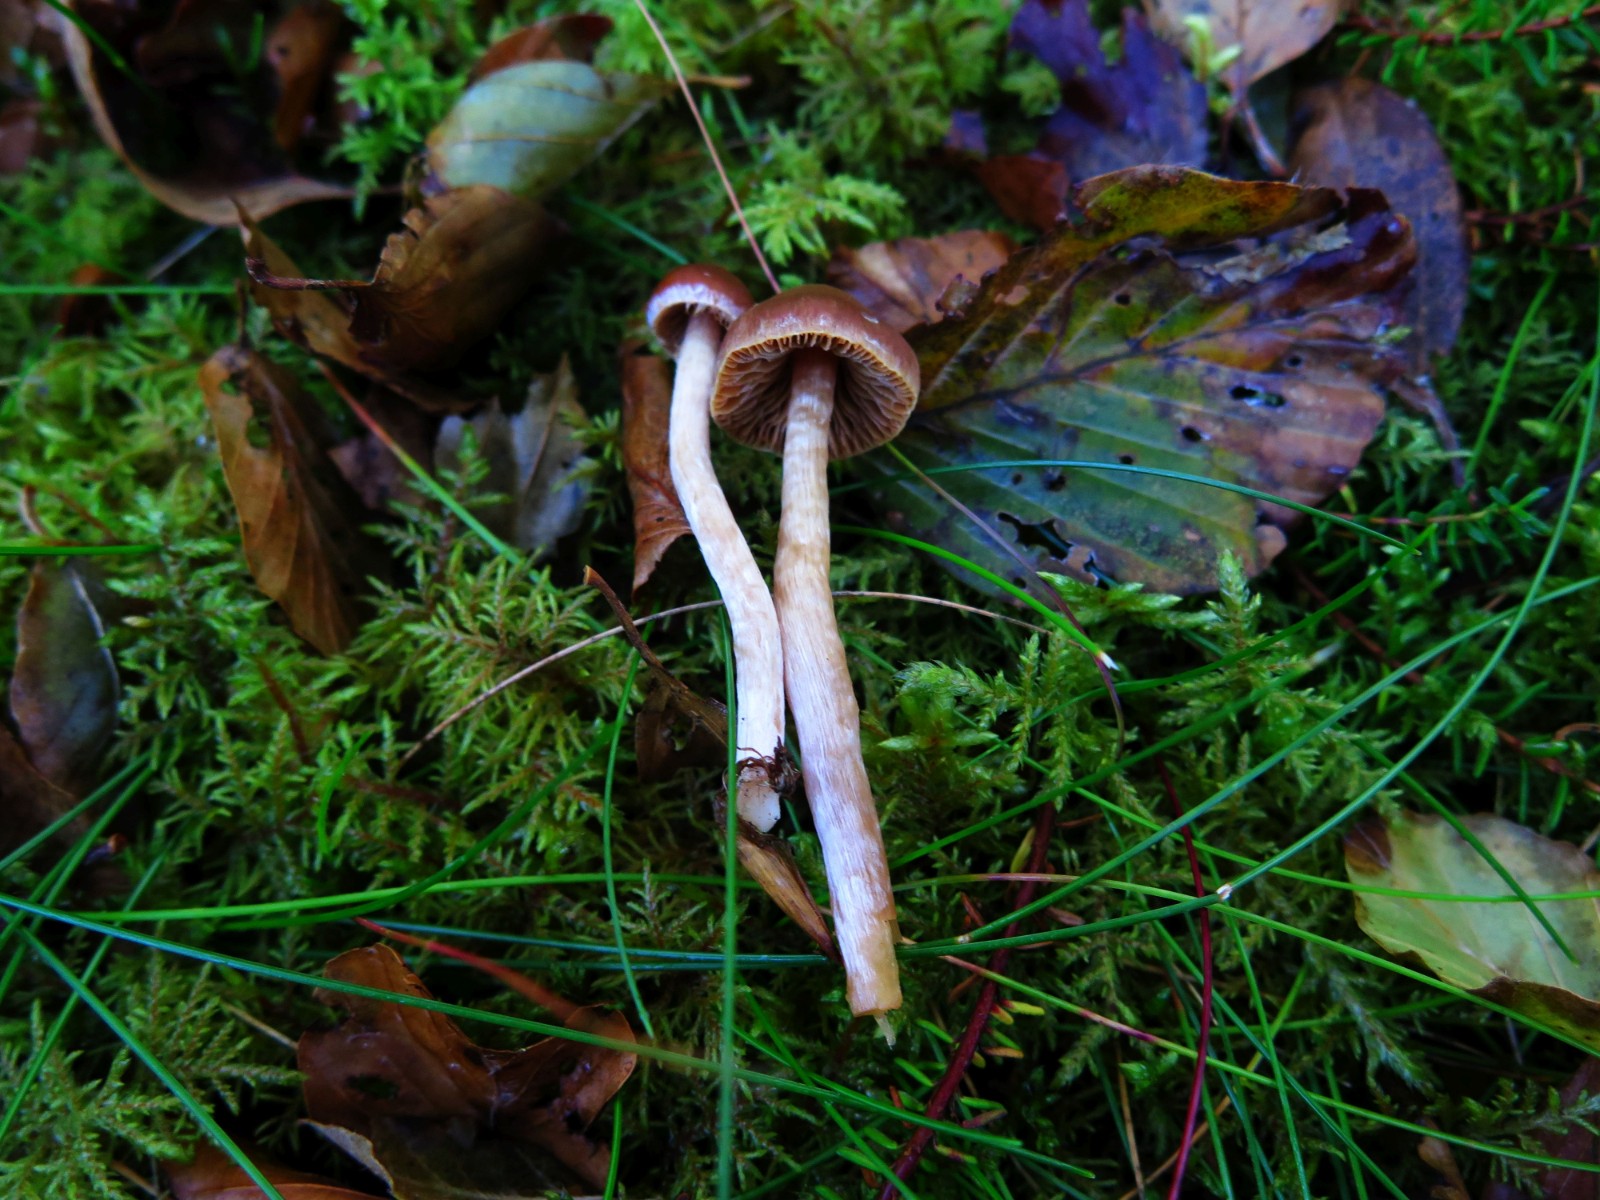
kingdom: Fungi
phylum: Basidiomycota
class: Agaricomycetes
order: Agaricales
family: Cortinariaceae
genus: Cortinarius
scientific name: Cortinarius
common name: hvidægget slørhat
